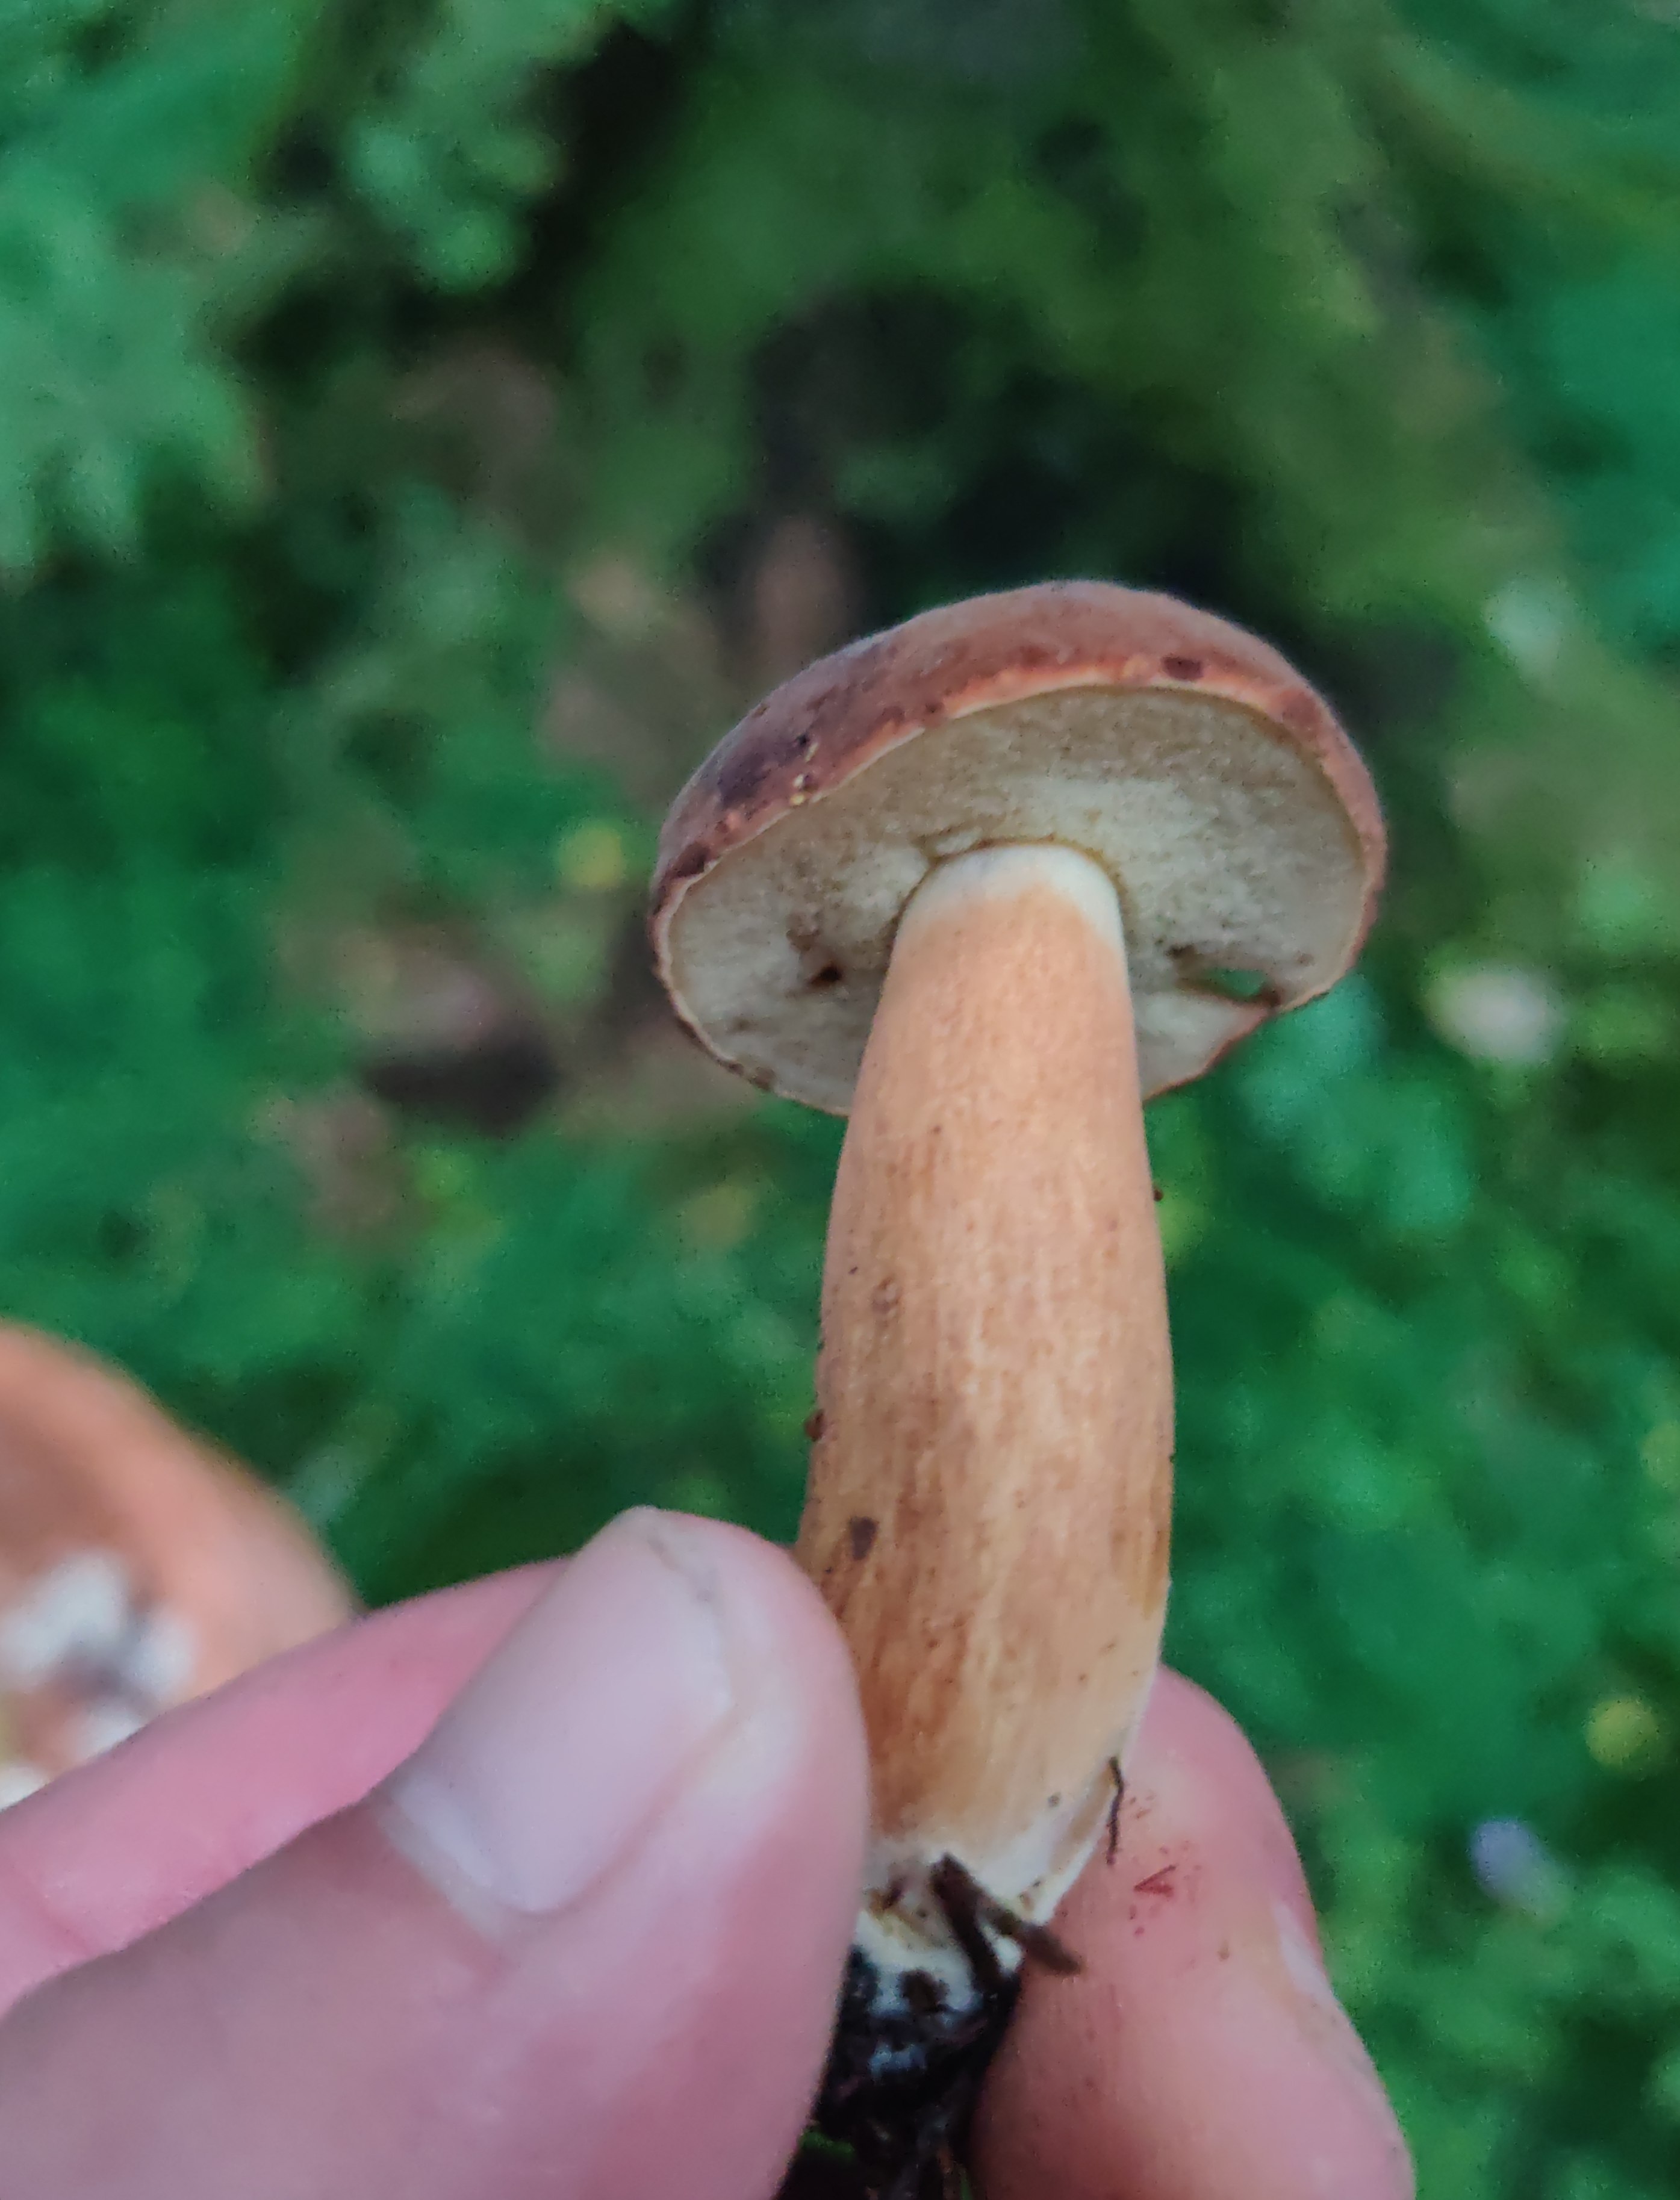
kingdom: Fungi
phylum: Basidiomycota
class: Agaricomycetes
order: Boletales
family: Boletaceae
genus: Imleria
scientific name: Imleria badia
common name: brunstokket rørhat
